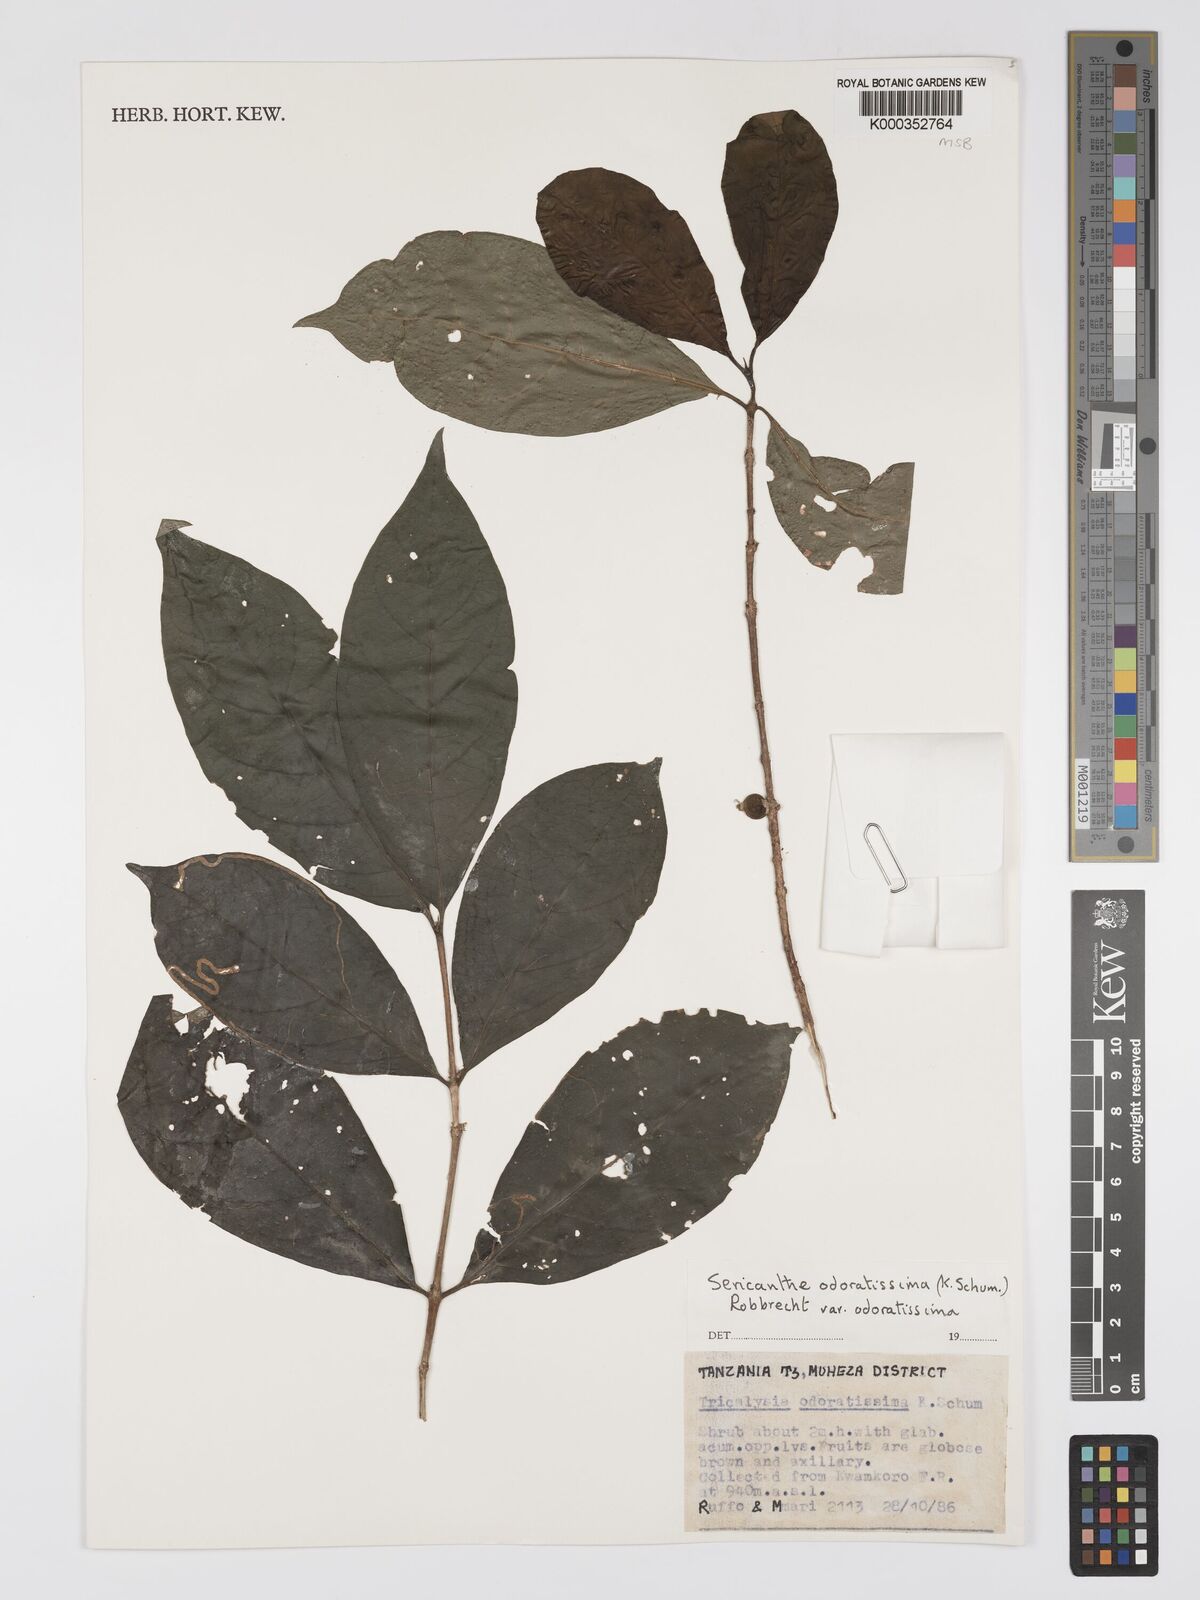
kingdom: Plantae
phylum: Tracheophyta
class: Magnoliopsida
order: Gentianales
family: Rubiaceae
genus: Sericanthe
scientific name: Sericanthe odoratissima
